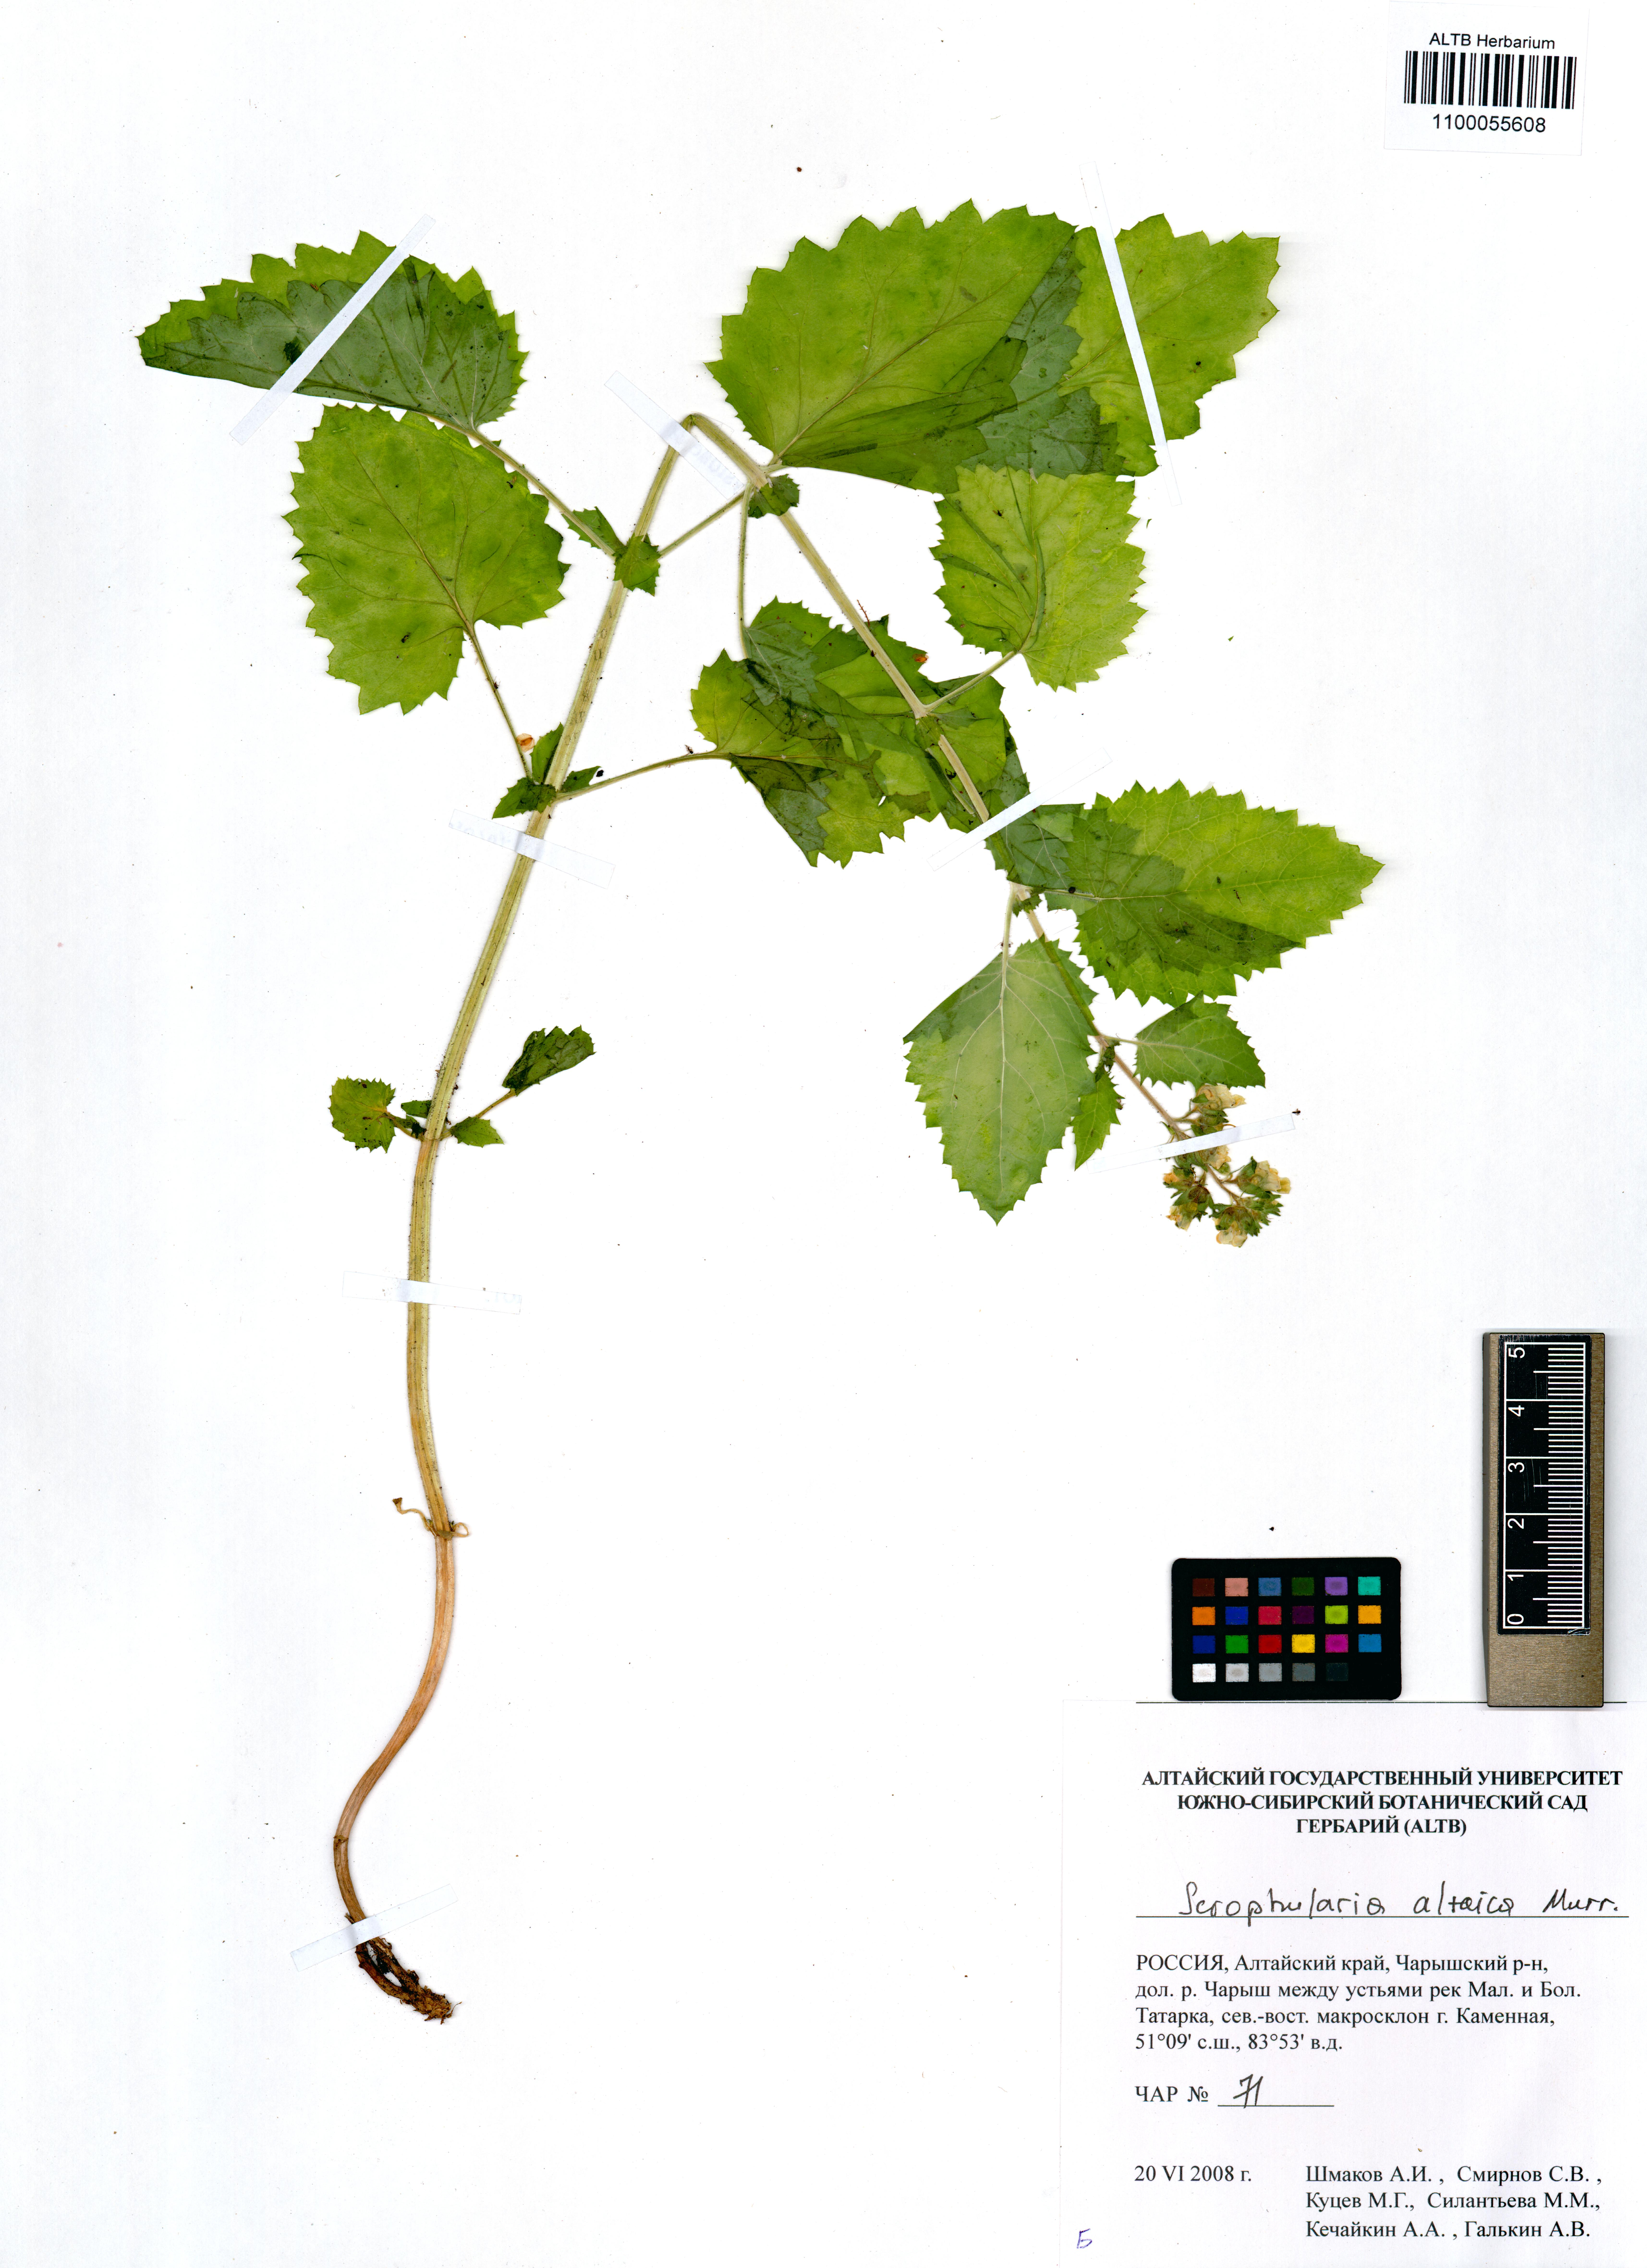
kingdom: Plantae
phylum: Tracheophyta
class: Magnoliopsida
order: Lamiales
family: Scrophulariaceae
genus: Scrophularia
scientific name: Scrophularia altaica
